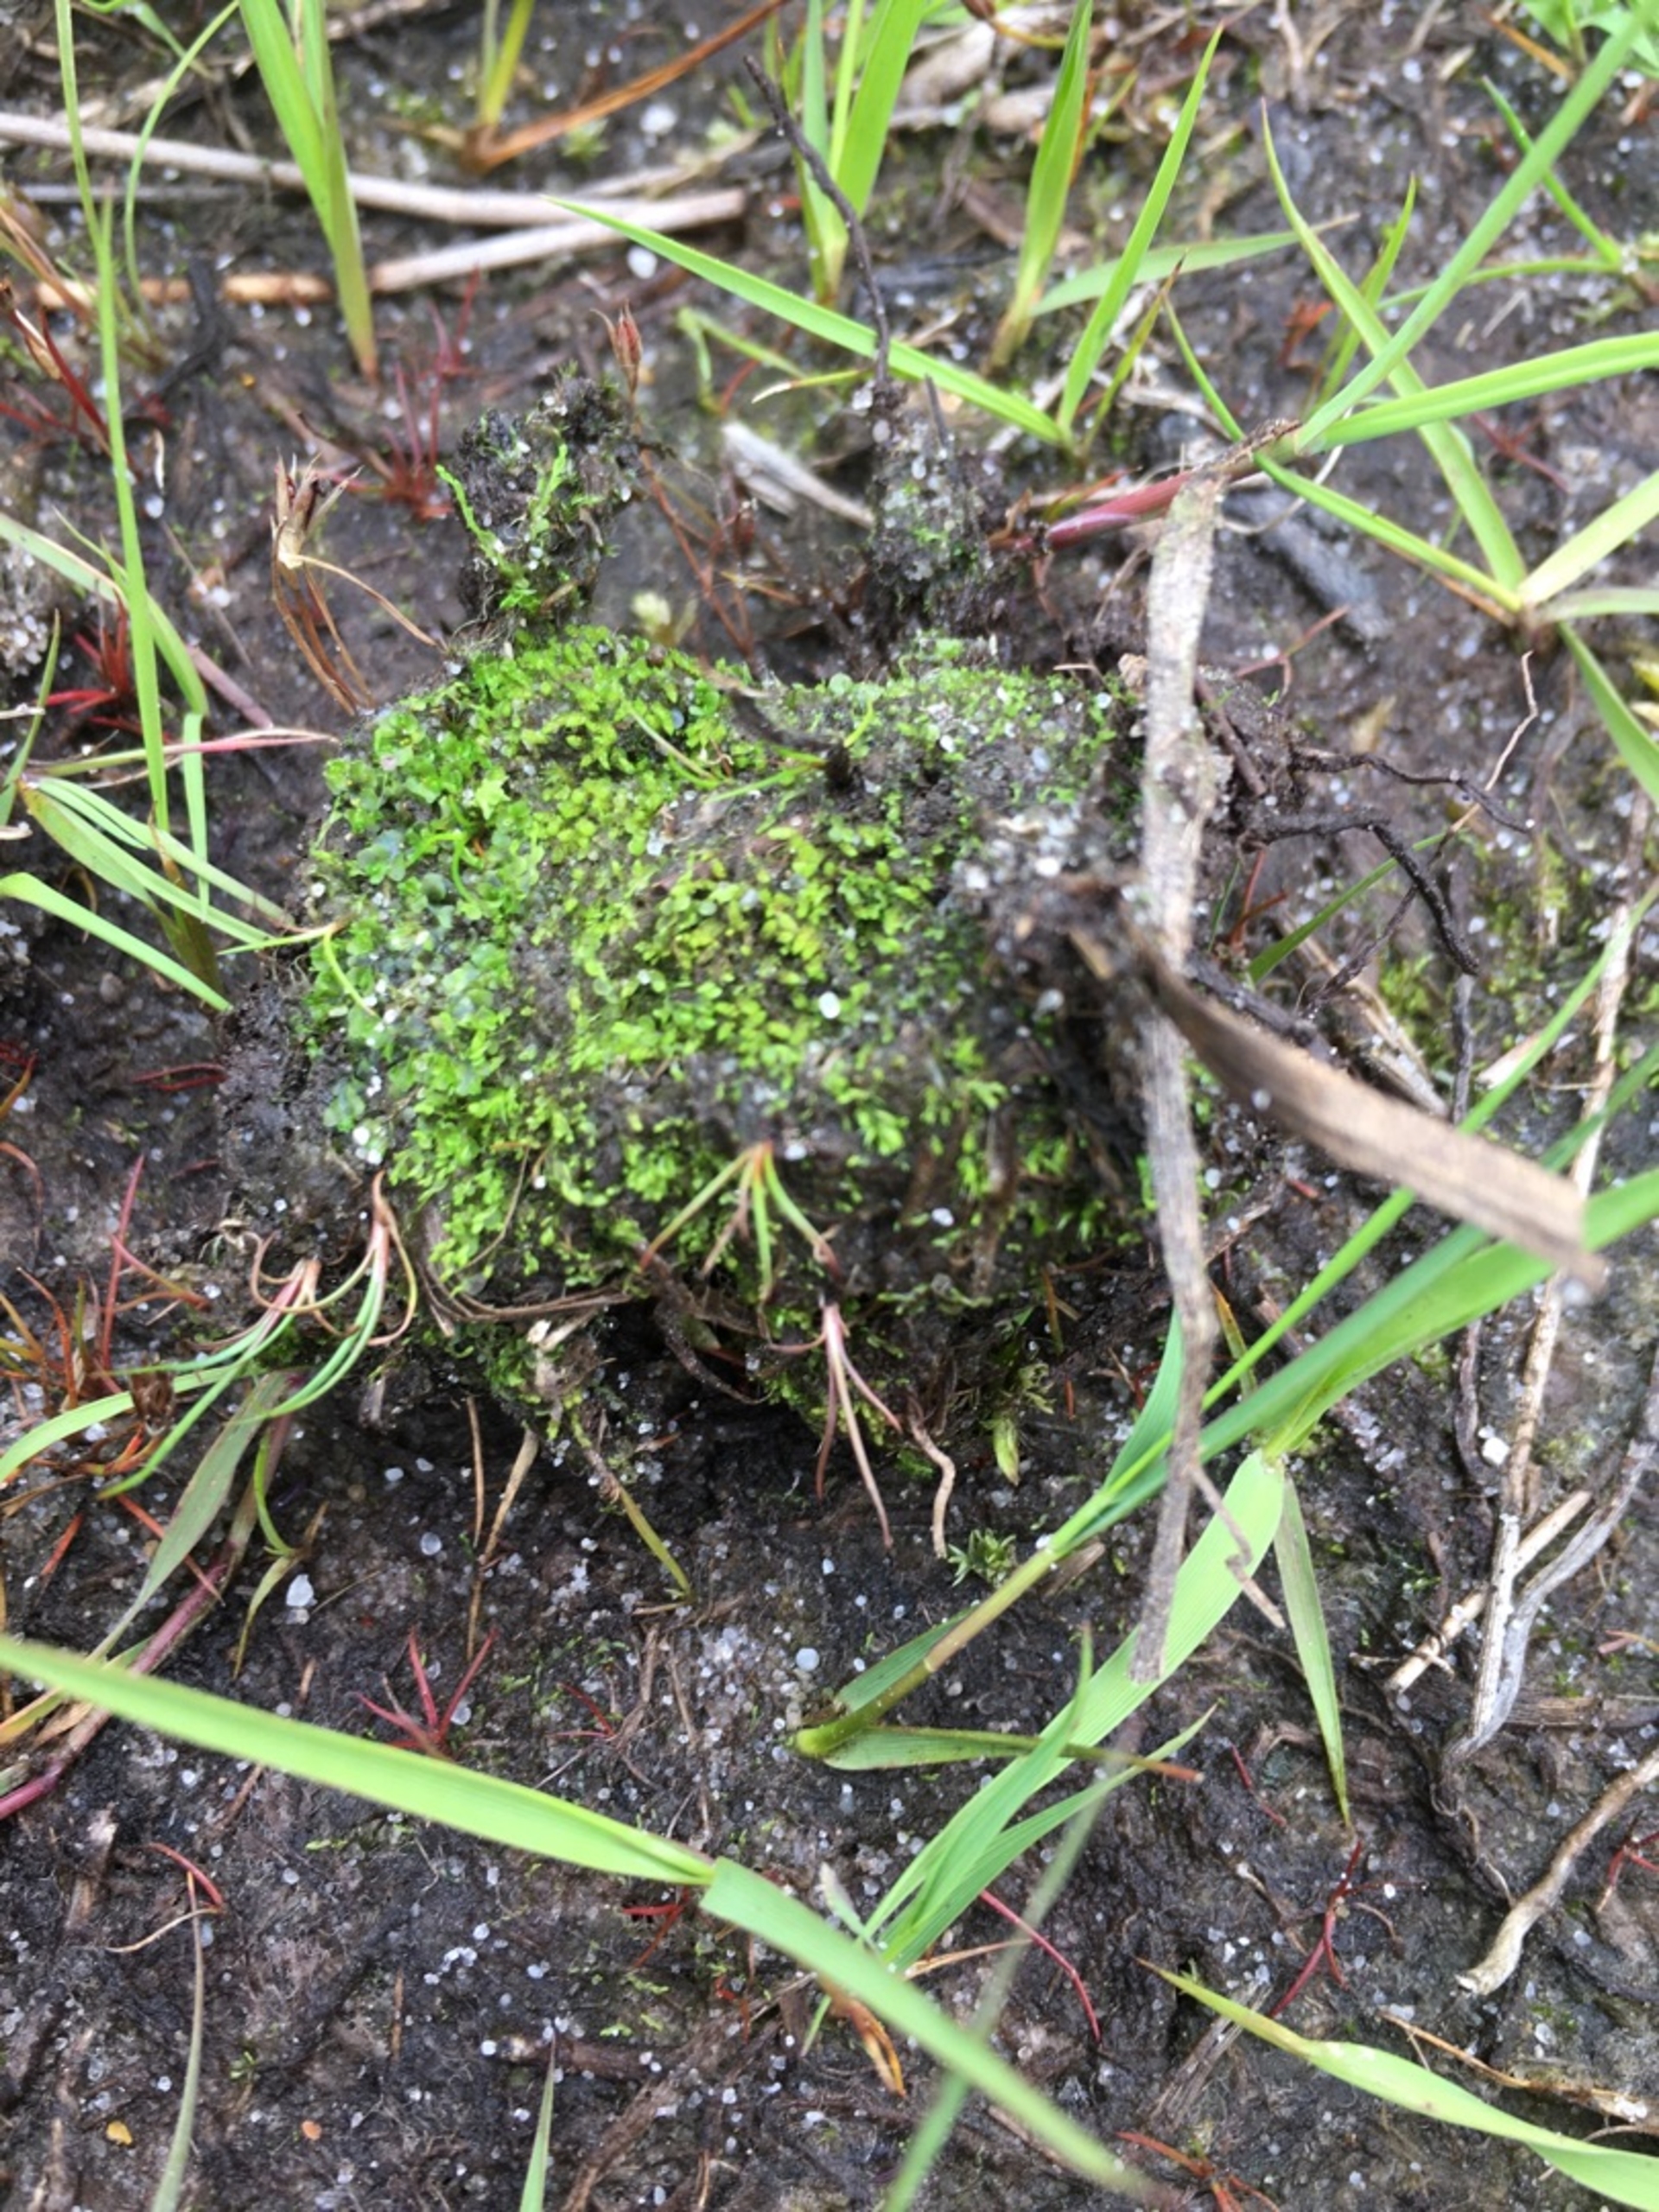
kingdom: Plantae
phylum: Marchantiophyta
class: Marchantiopsida
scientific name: Marchantiopsida
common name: Levermosser
